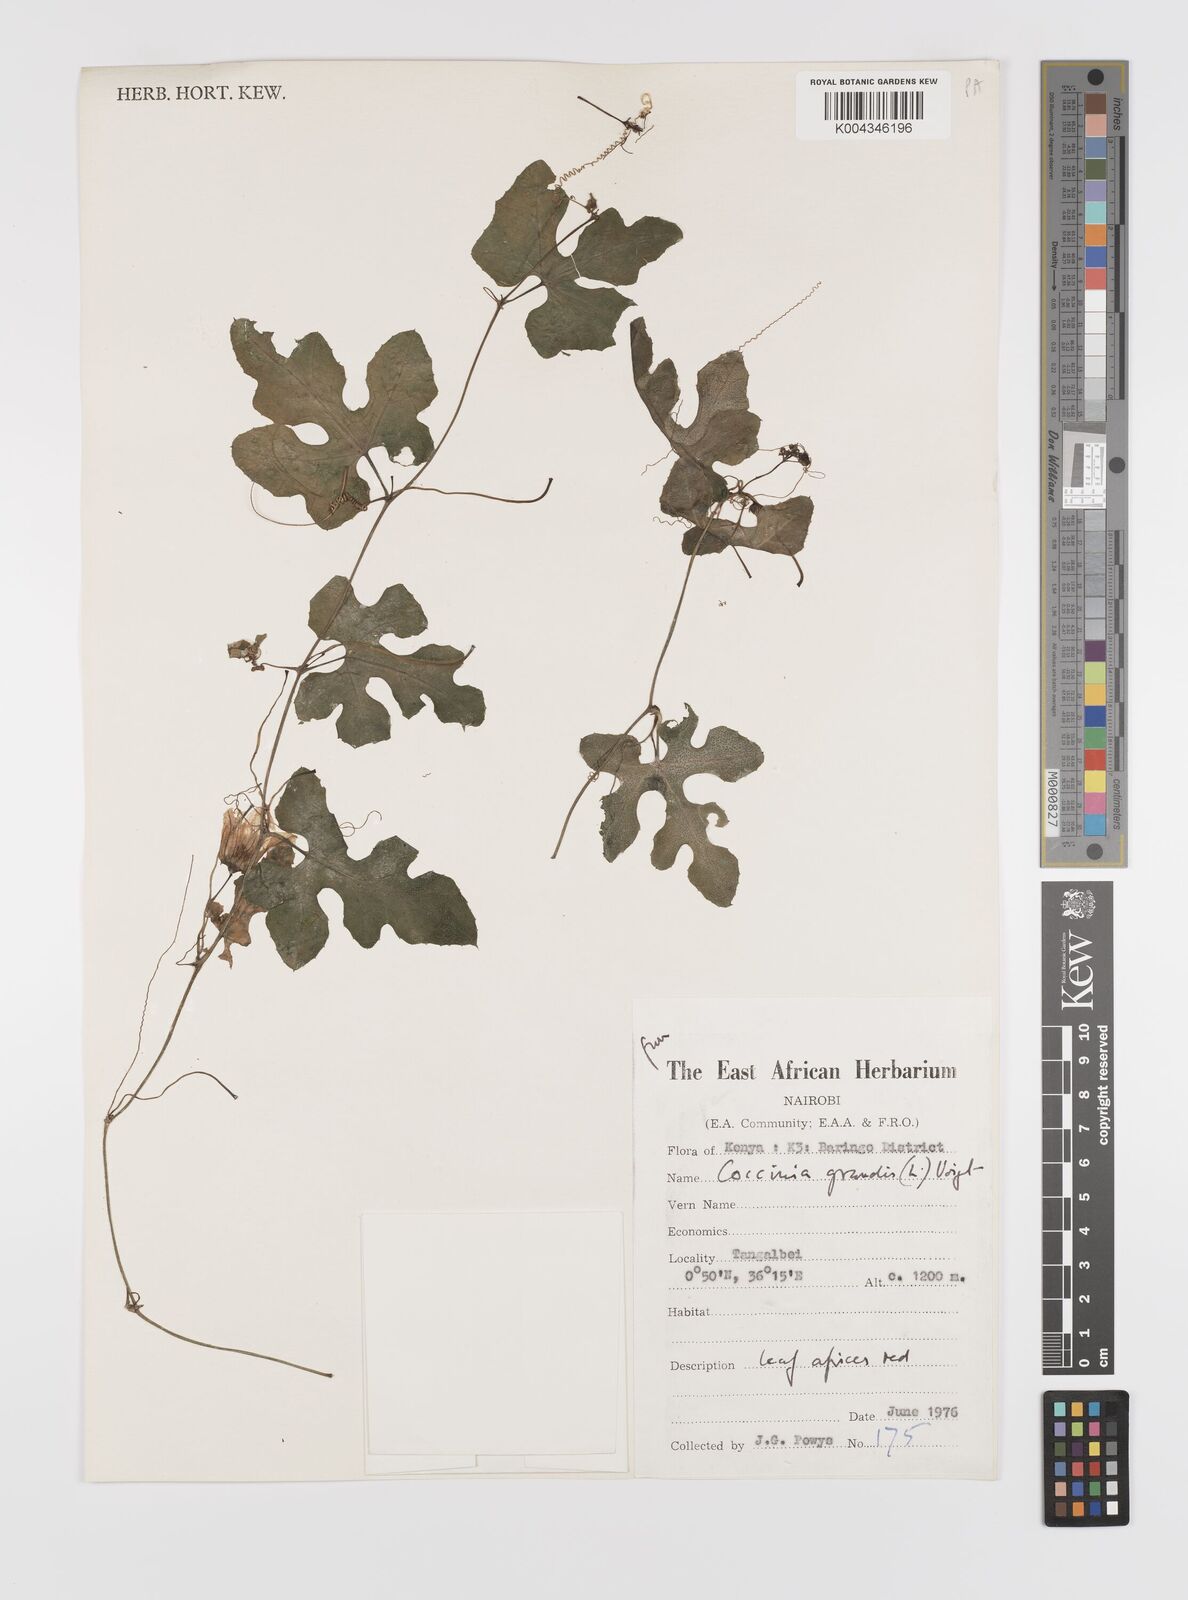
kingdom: Plantae
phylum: Tracheophyta
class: Magnoliopsida
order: Cucurbitales
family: Cucurbitaceae
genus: Coccinia
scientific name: Coccinia grandis
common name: Ivy gourd
